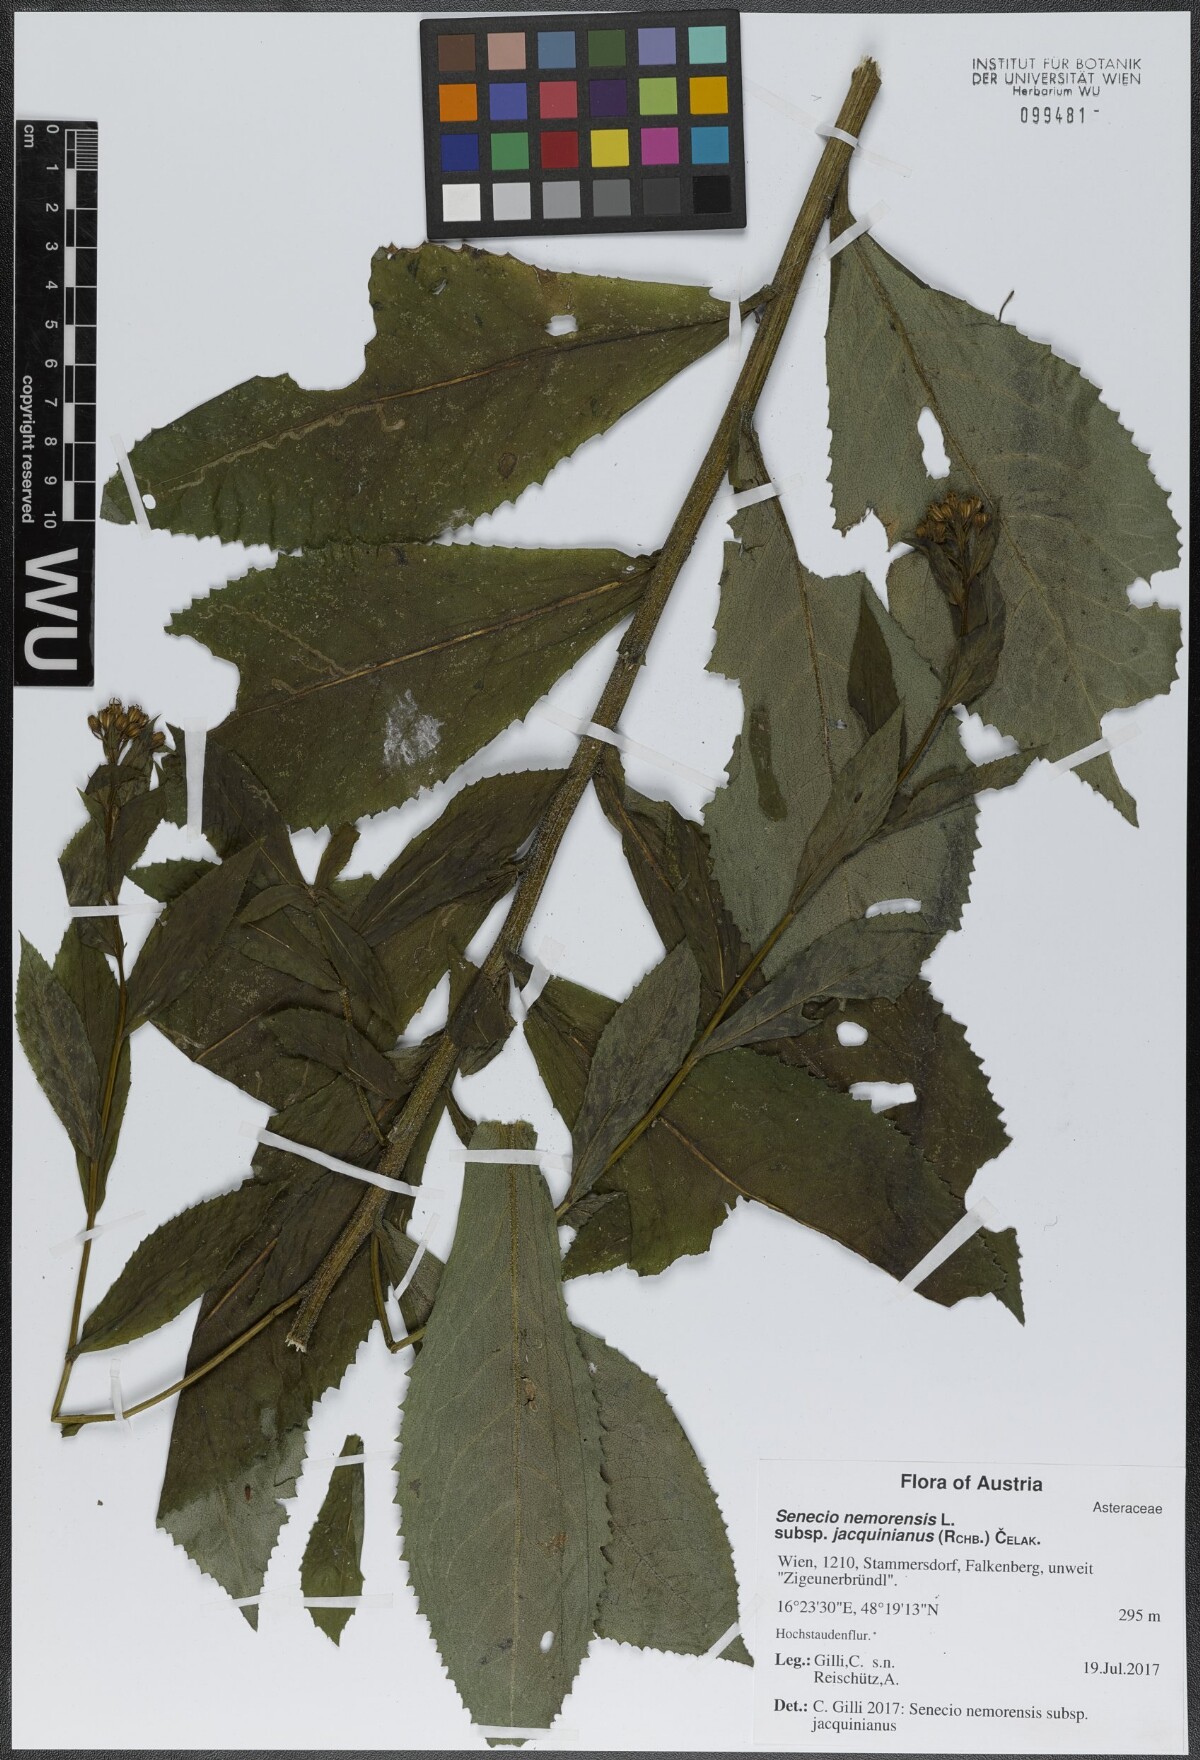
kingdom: Plantae
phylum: Tracheophyta
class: Magnoliopsida
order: Asterales
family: Asteraceae
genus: Senecio
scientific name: Senecio germanicus
